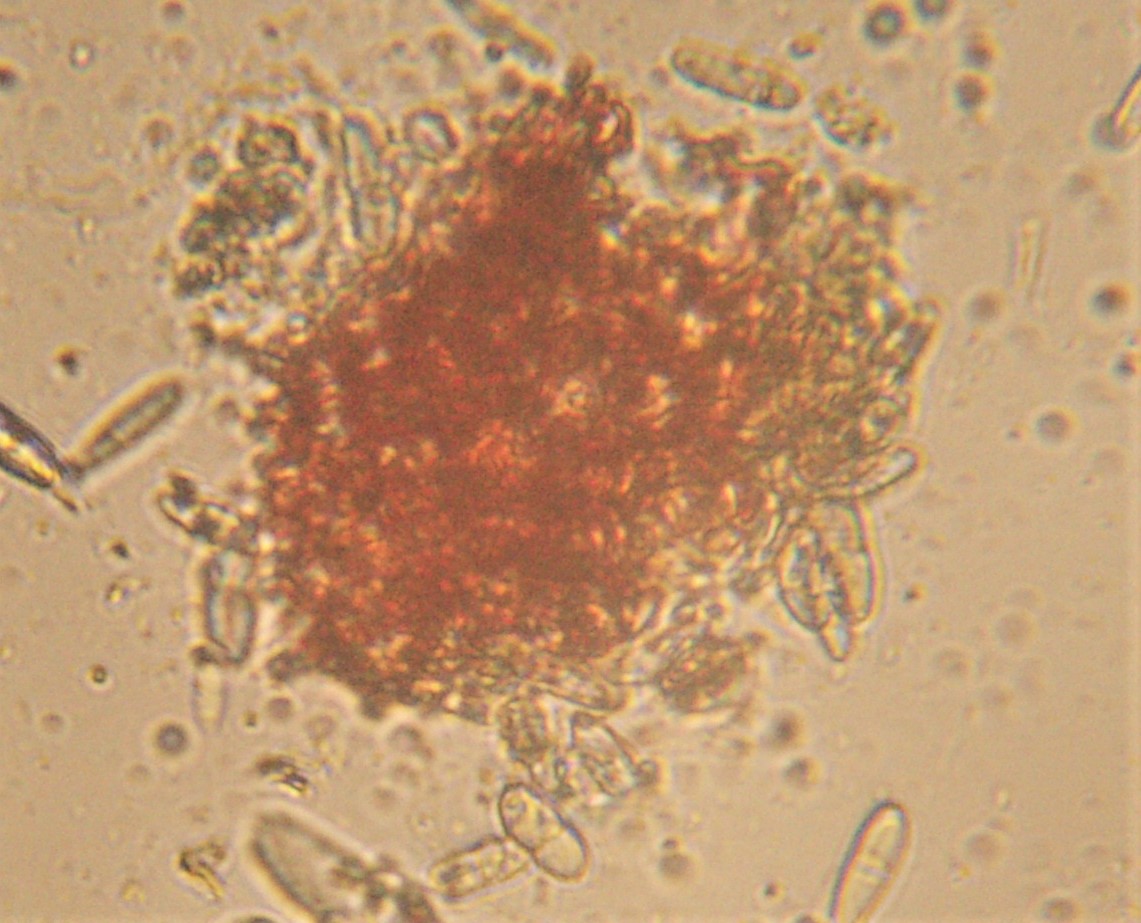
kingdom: Fungi
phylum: Ascomycota
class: Sordariomycetes
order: Hypocreales
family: Nectriaceae
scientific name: Nectriaceae
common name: cinnobersvampfamilien
